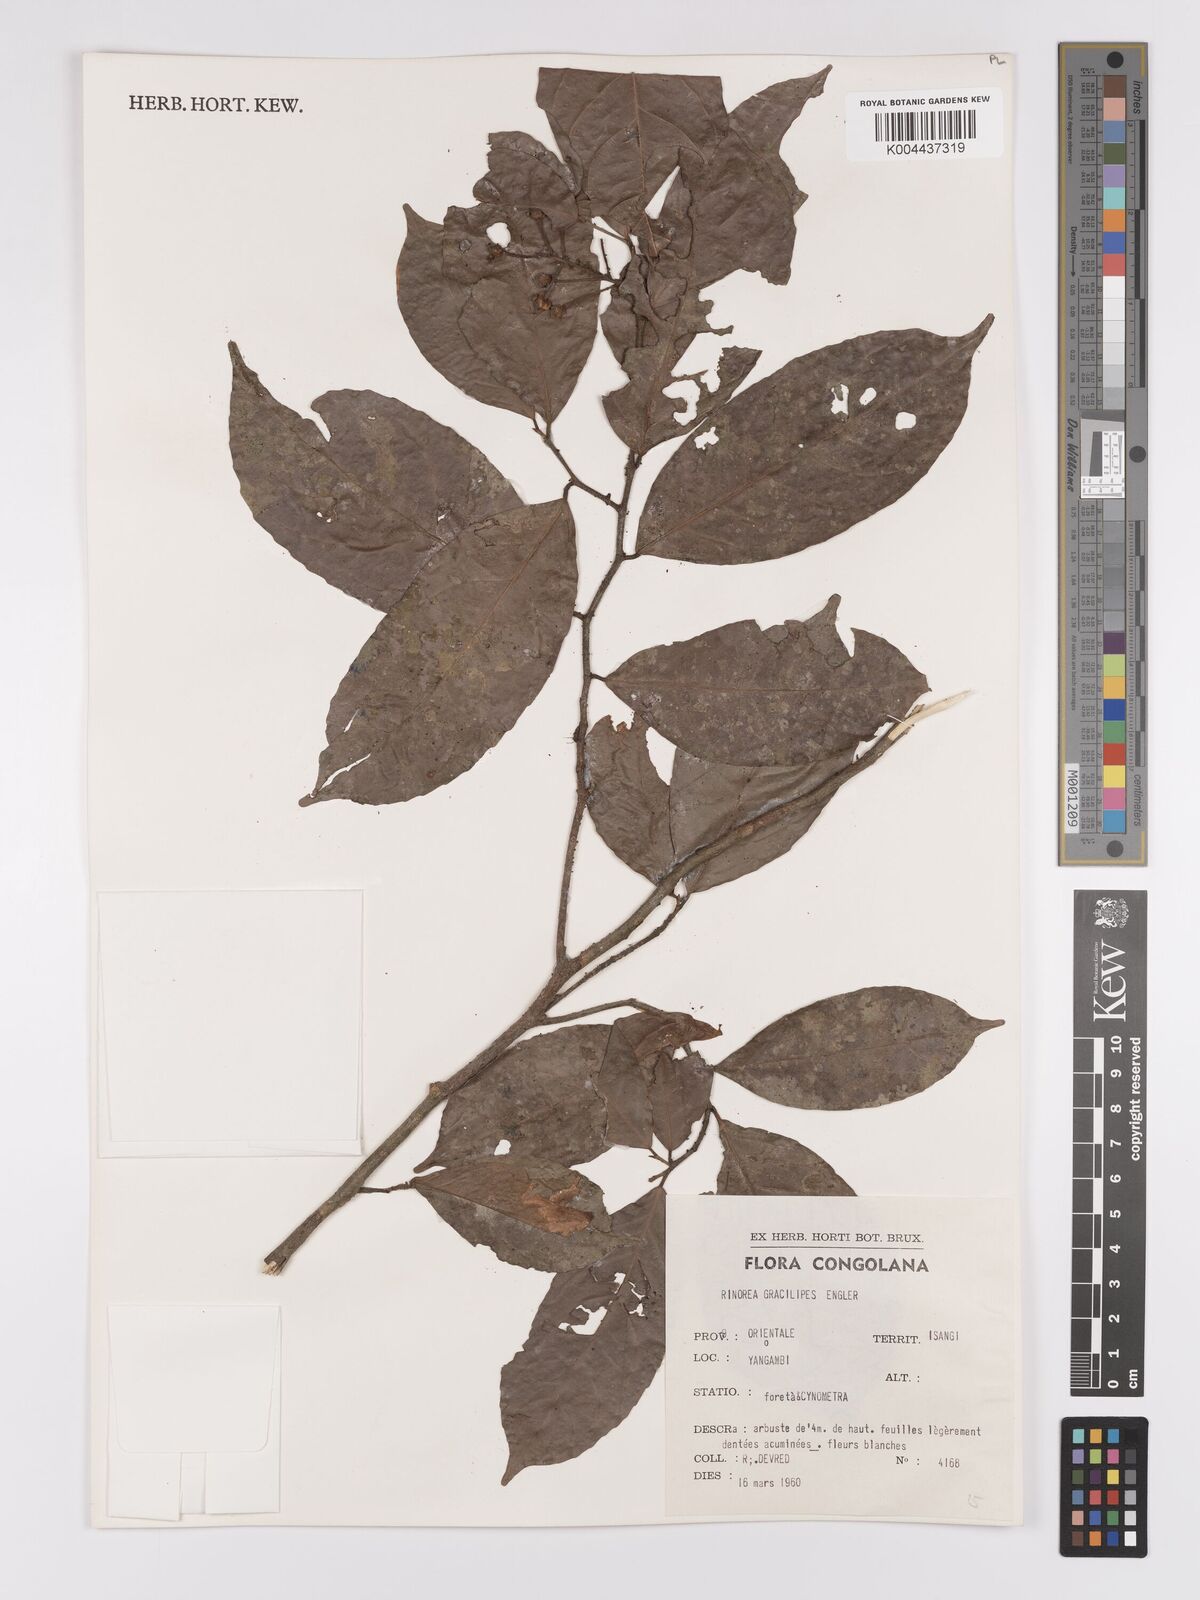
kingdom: Plantae
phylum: Tracheophyta
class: Magnoliopsida
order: Malpighiales
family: Violaceae
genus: Rinorea
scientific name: Rinorea angustifolia
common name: White violet-bush
